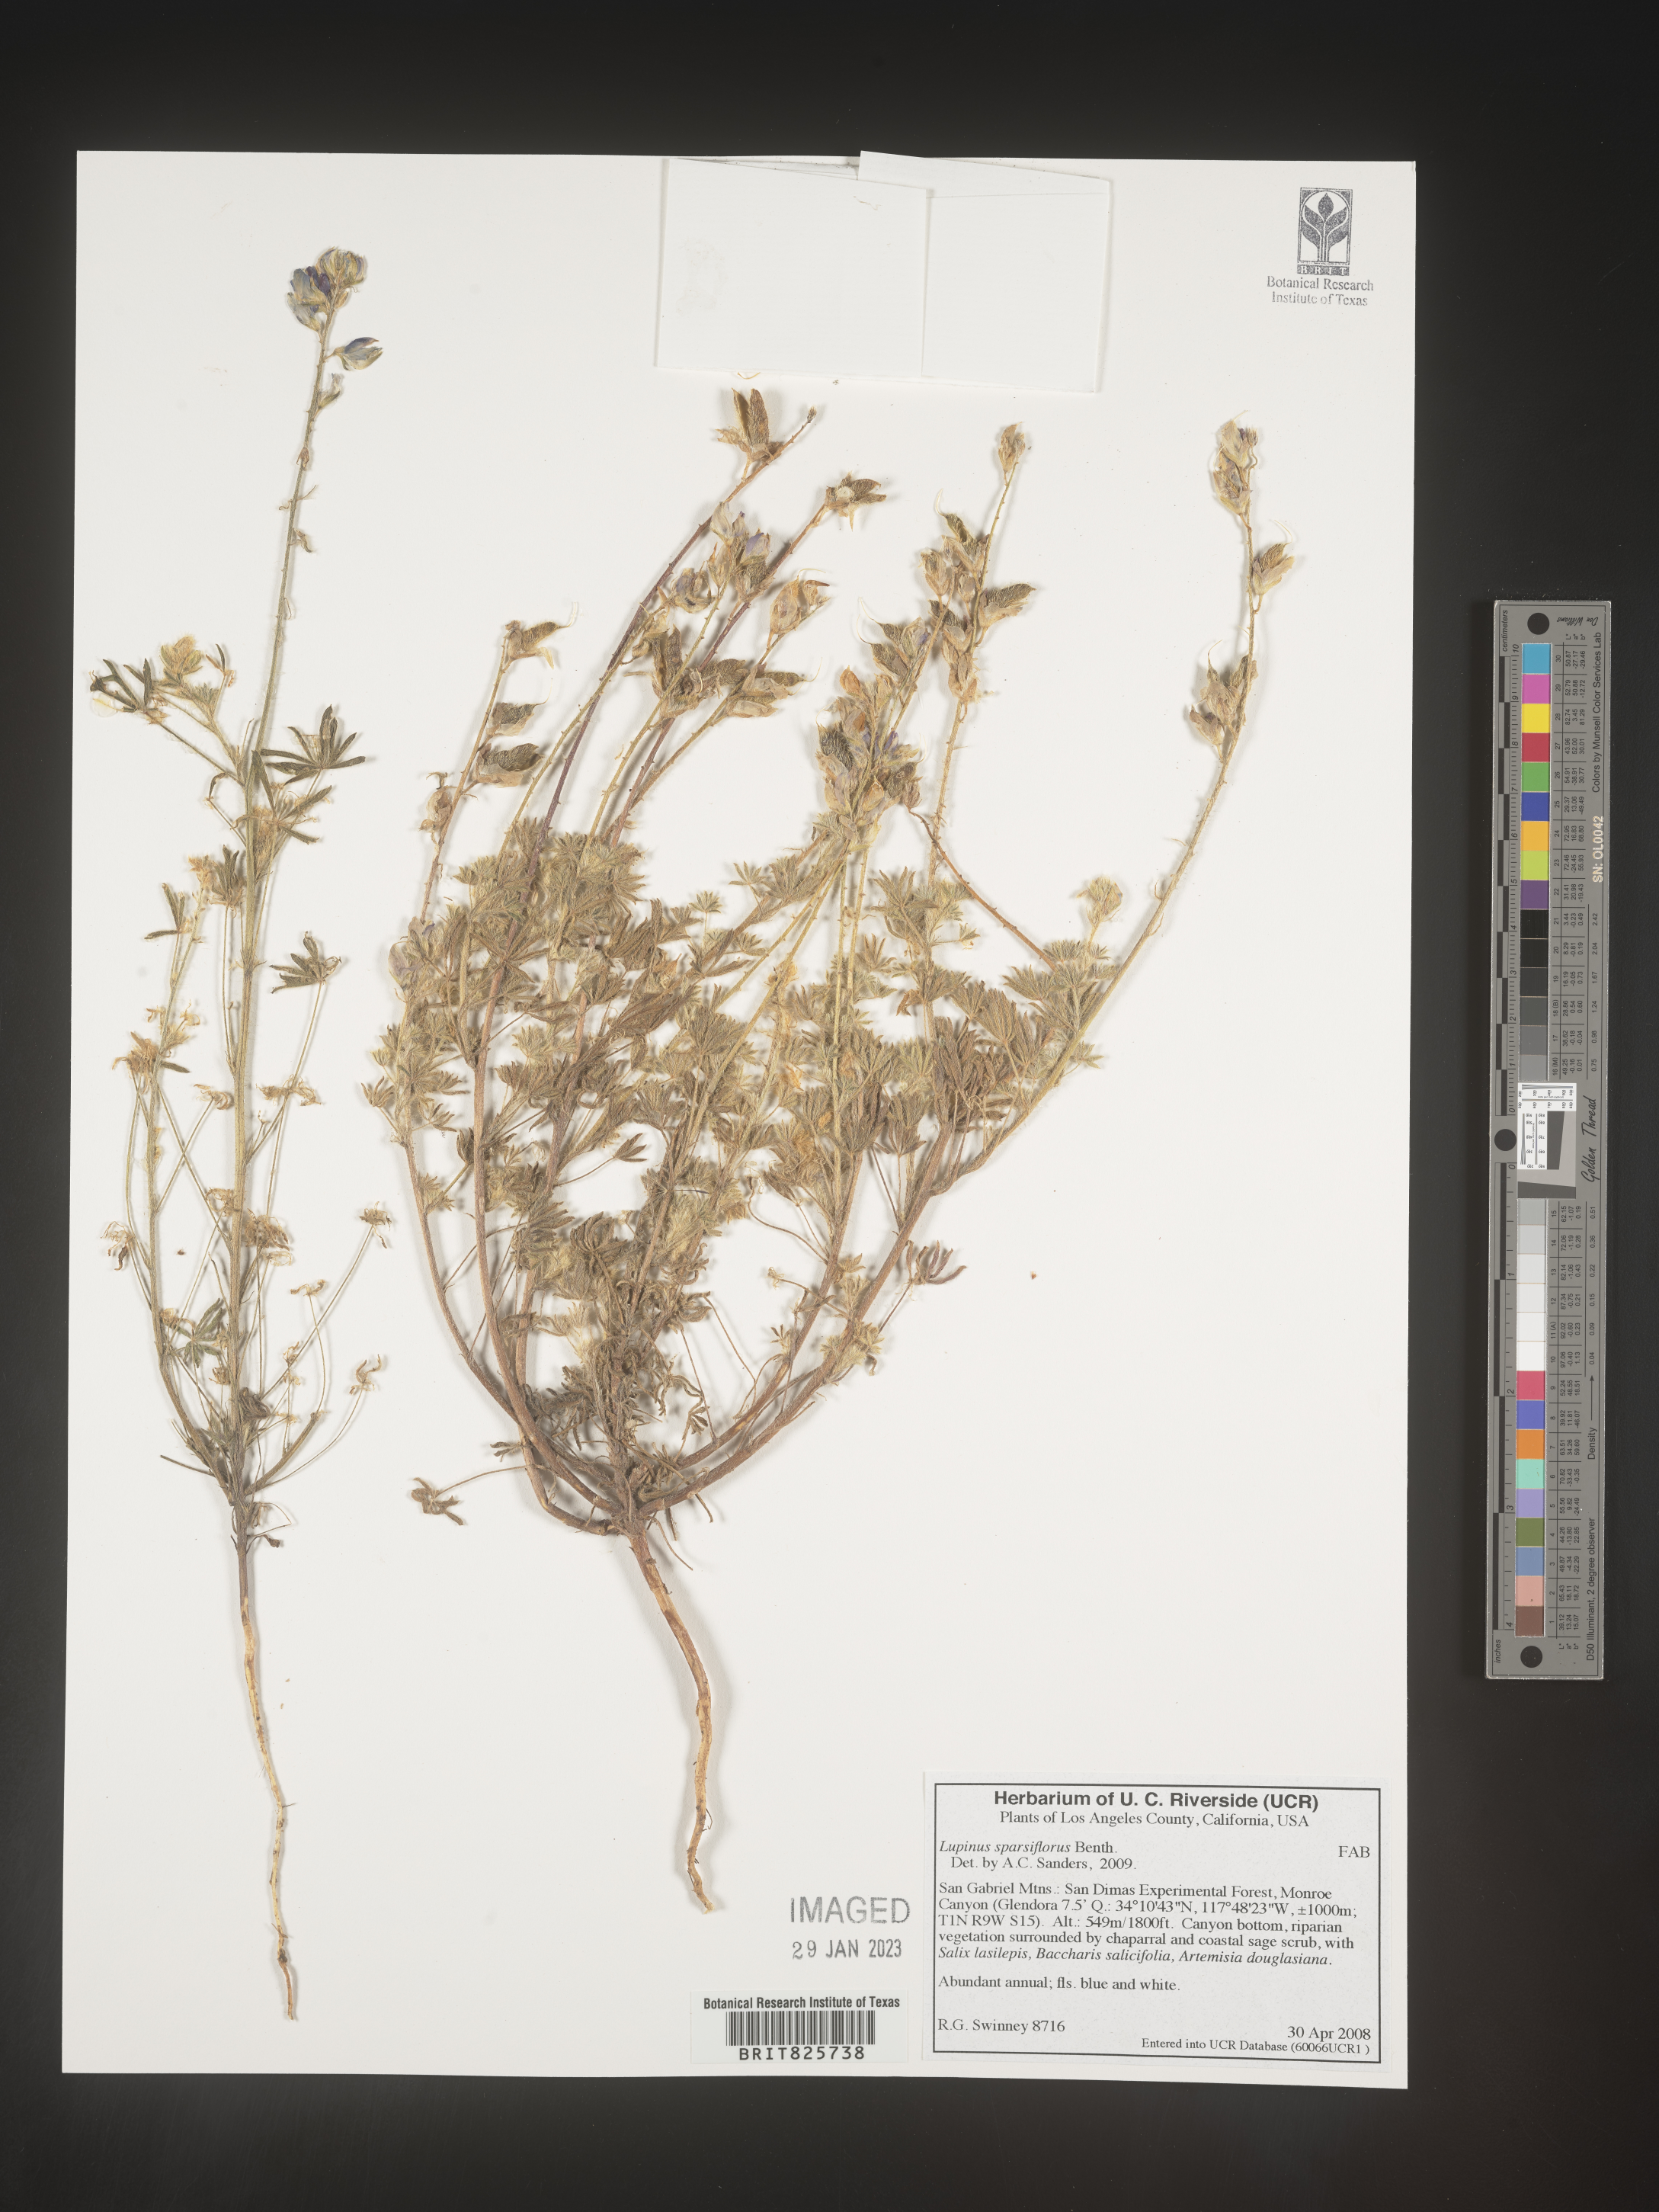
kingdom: Plantae
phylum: Tracheophyta
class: Magnoliopsida
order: Fabales
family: Fabaceae
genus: Lupinus
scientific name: Lupinus
